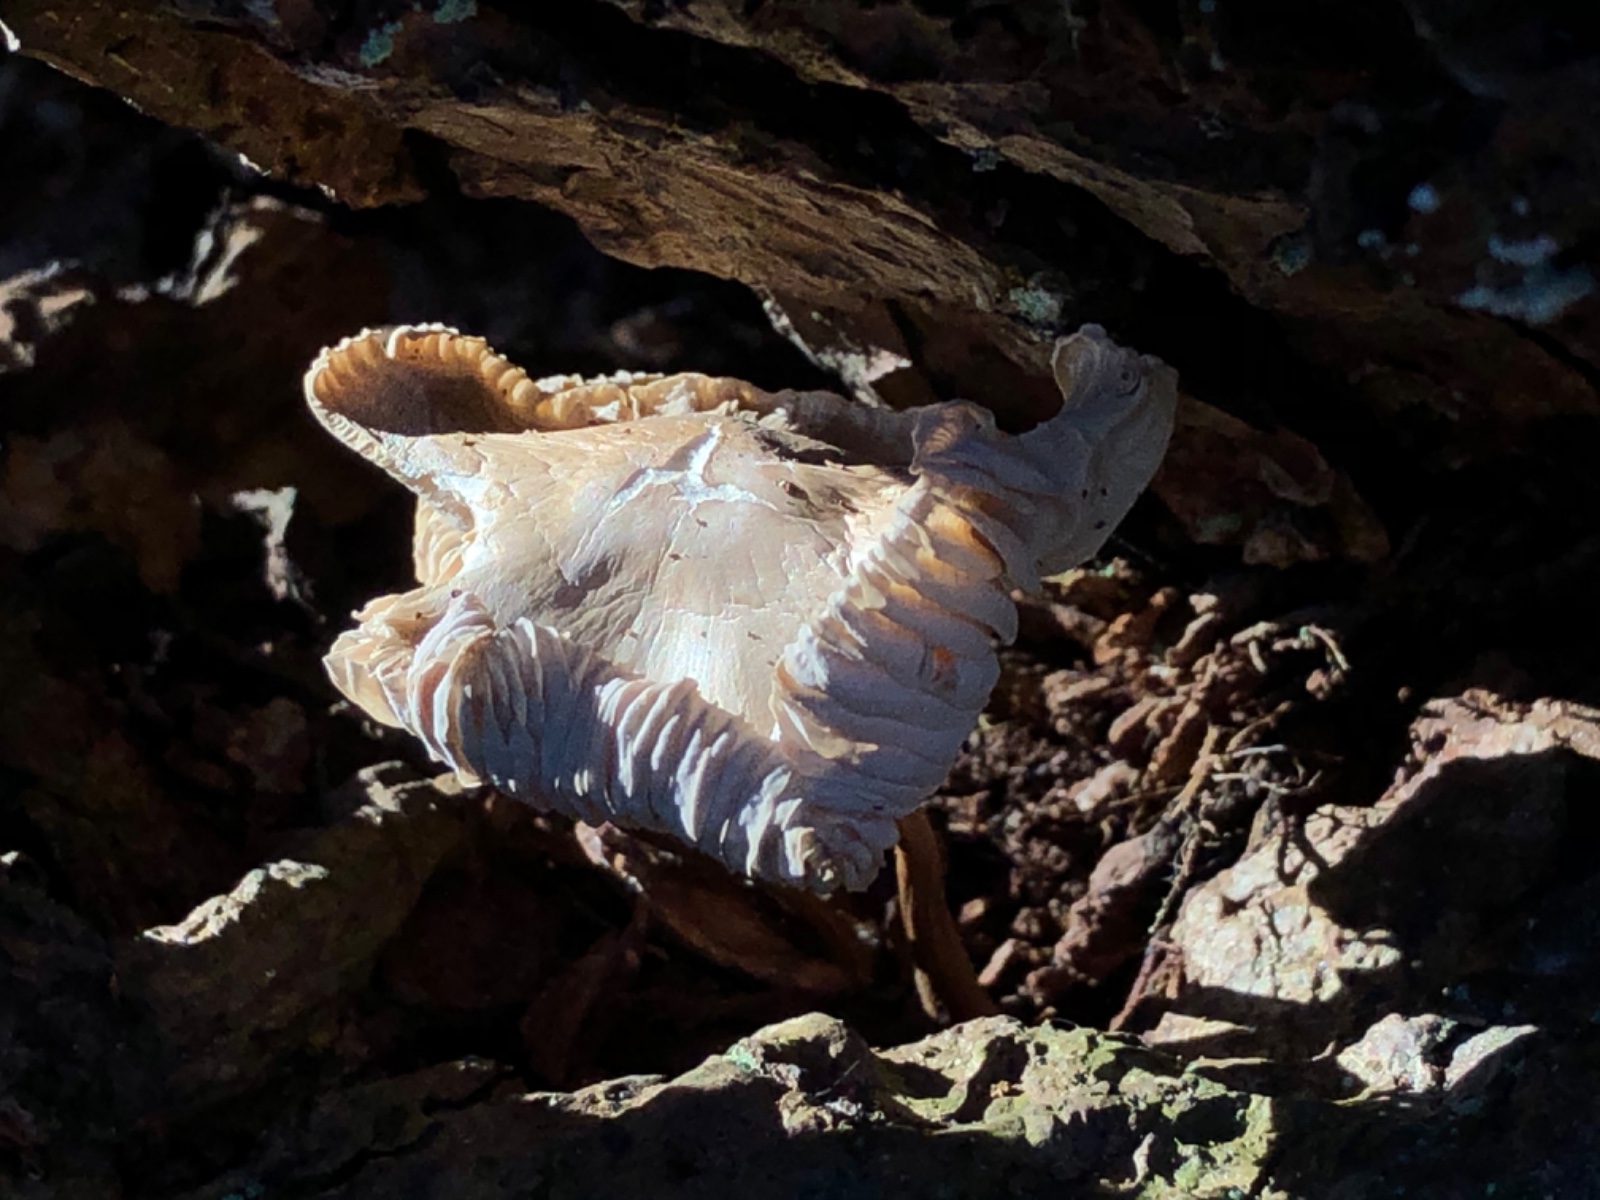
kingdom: Fungi
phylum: Basidiomycota
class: Agaricomycetes
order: Agaricales
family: Mycenaceae
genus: Mycena
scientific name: Mycena galericulata
